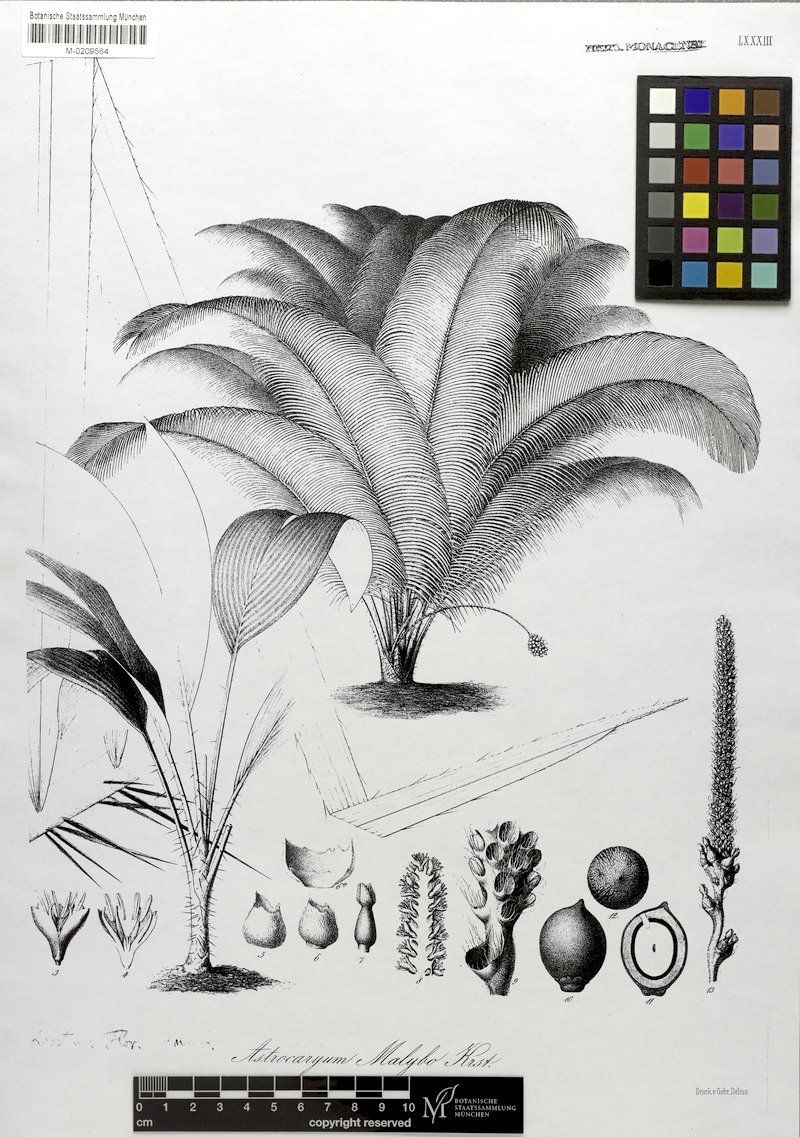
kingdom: Plantae
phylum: Tracheophyta
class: Liliopsida
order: Arecales
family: Arecaceae
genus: Astrocaryum
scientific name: Astrocaryum malybo
